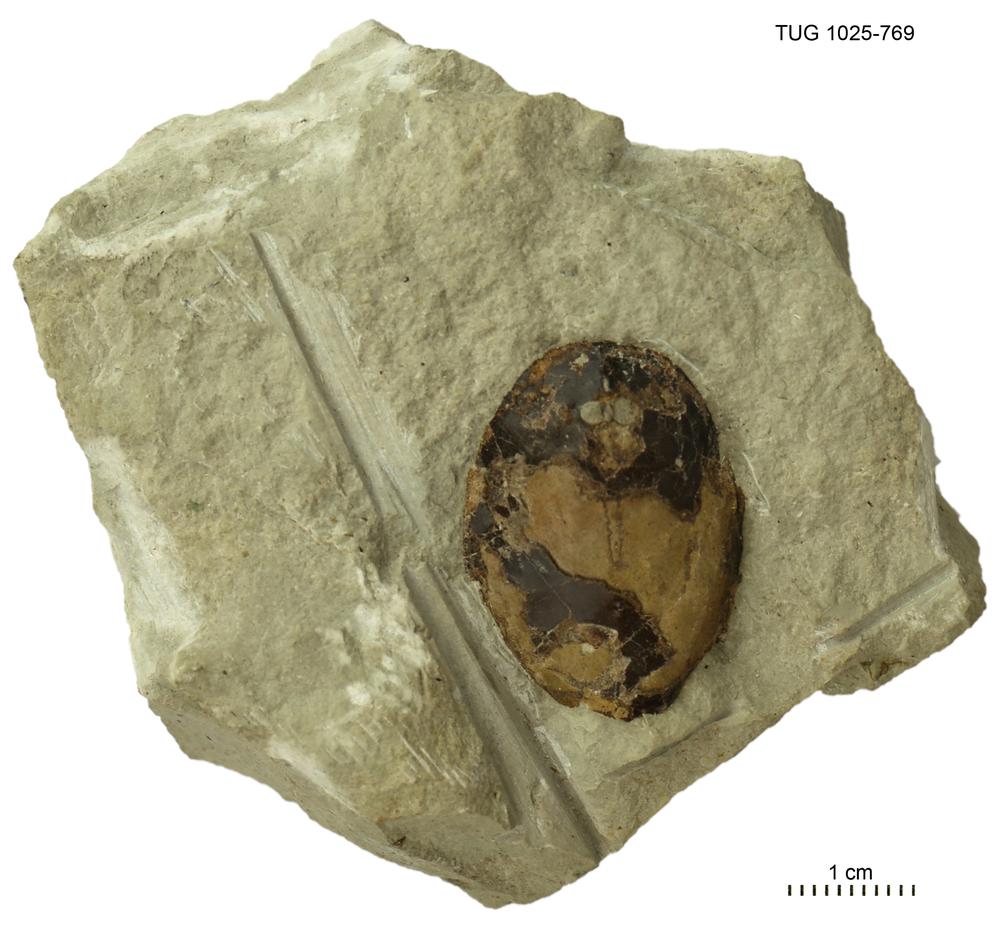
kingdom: Animalia
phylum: Chordata
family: Tremataspididae
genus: Tremataspis
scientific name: Tremataspis
